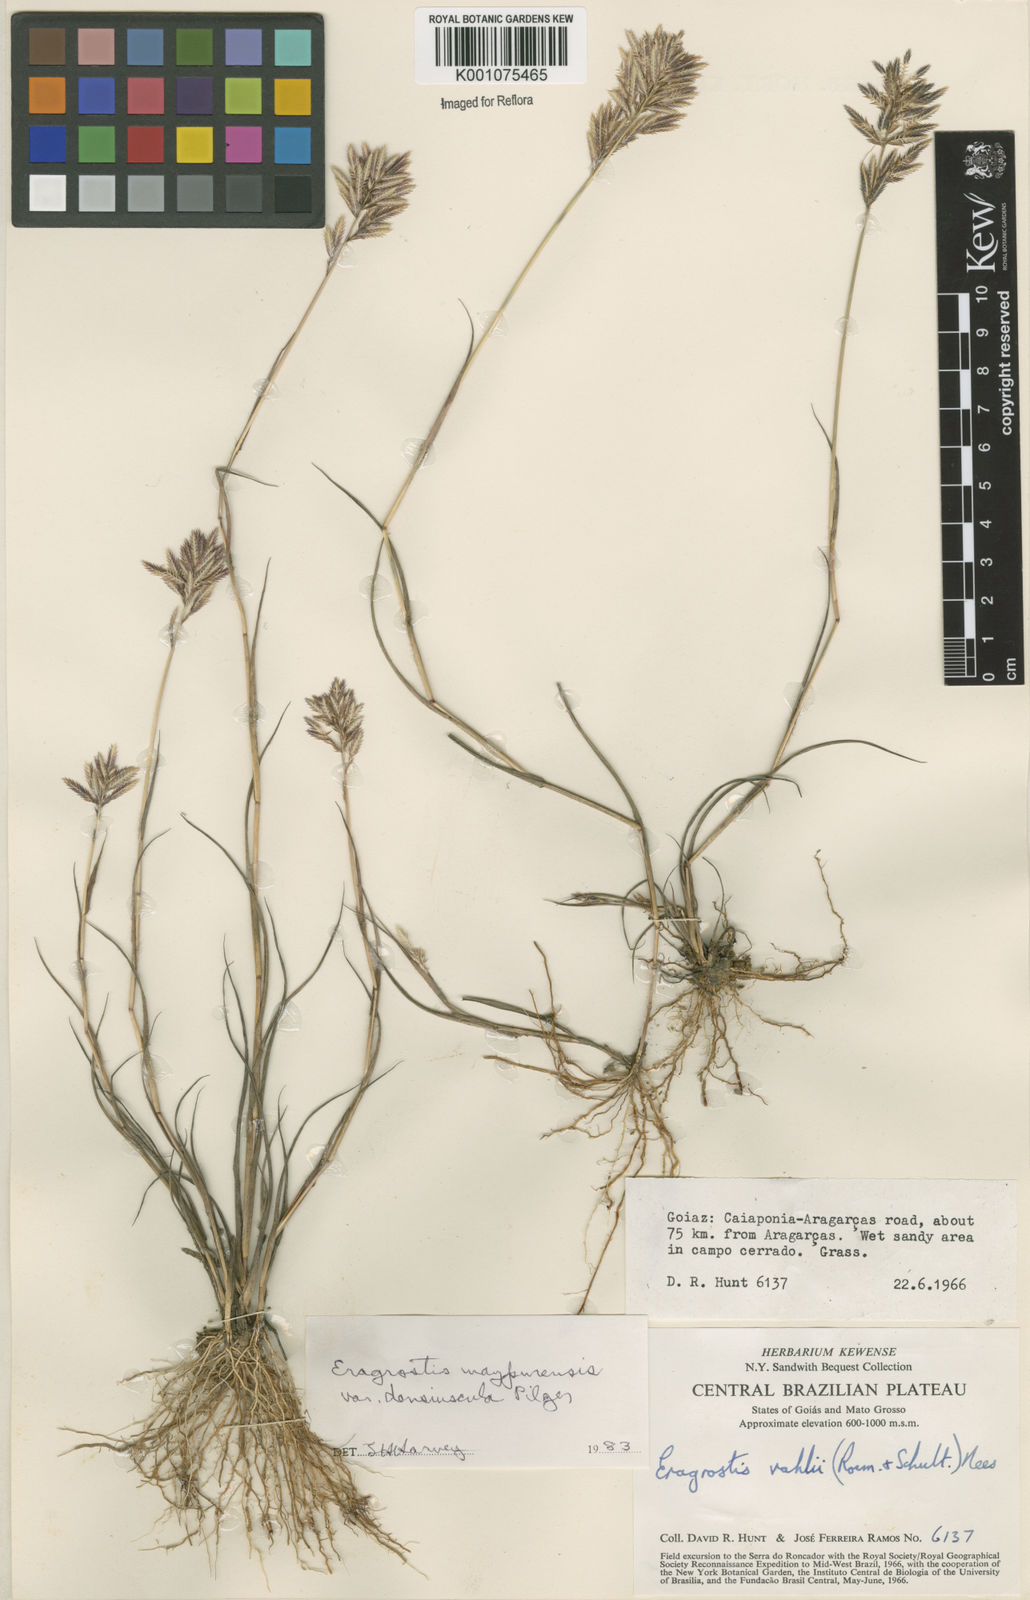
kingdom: Plantae
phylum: Tracheophyta
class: Liliopsida
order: Poales
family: Poaceae
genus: Eragrostis
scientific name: Eragrostis maypurensis
